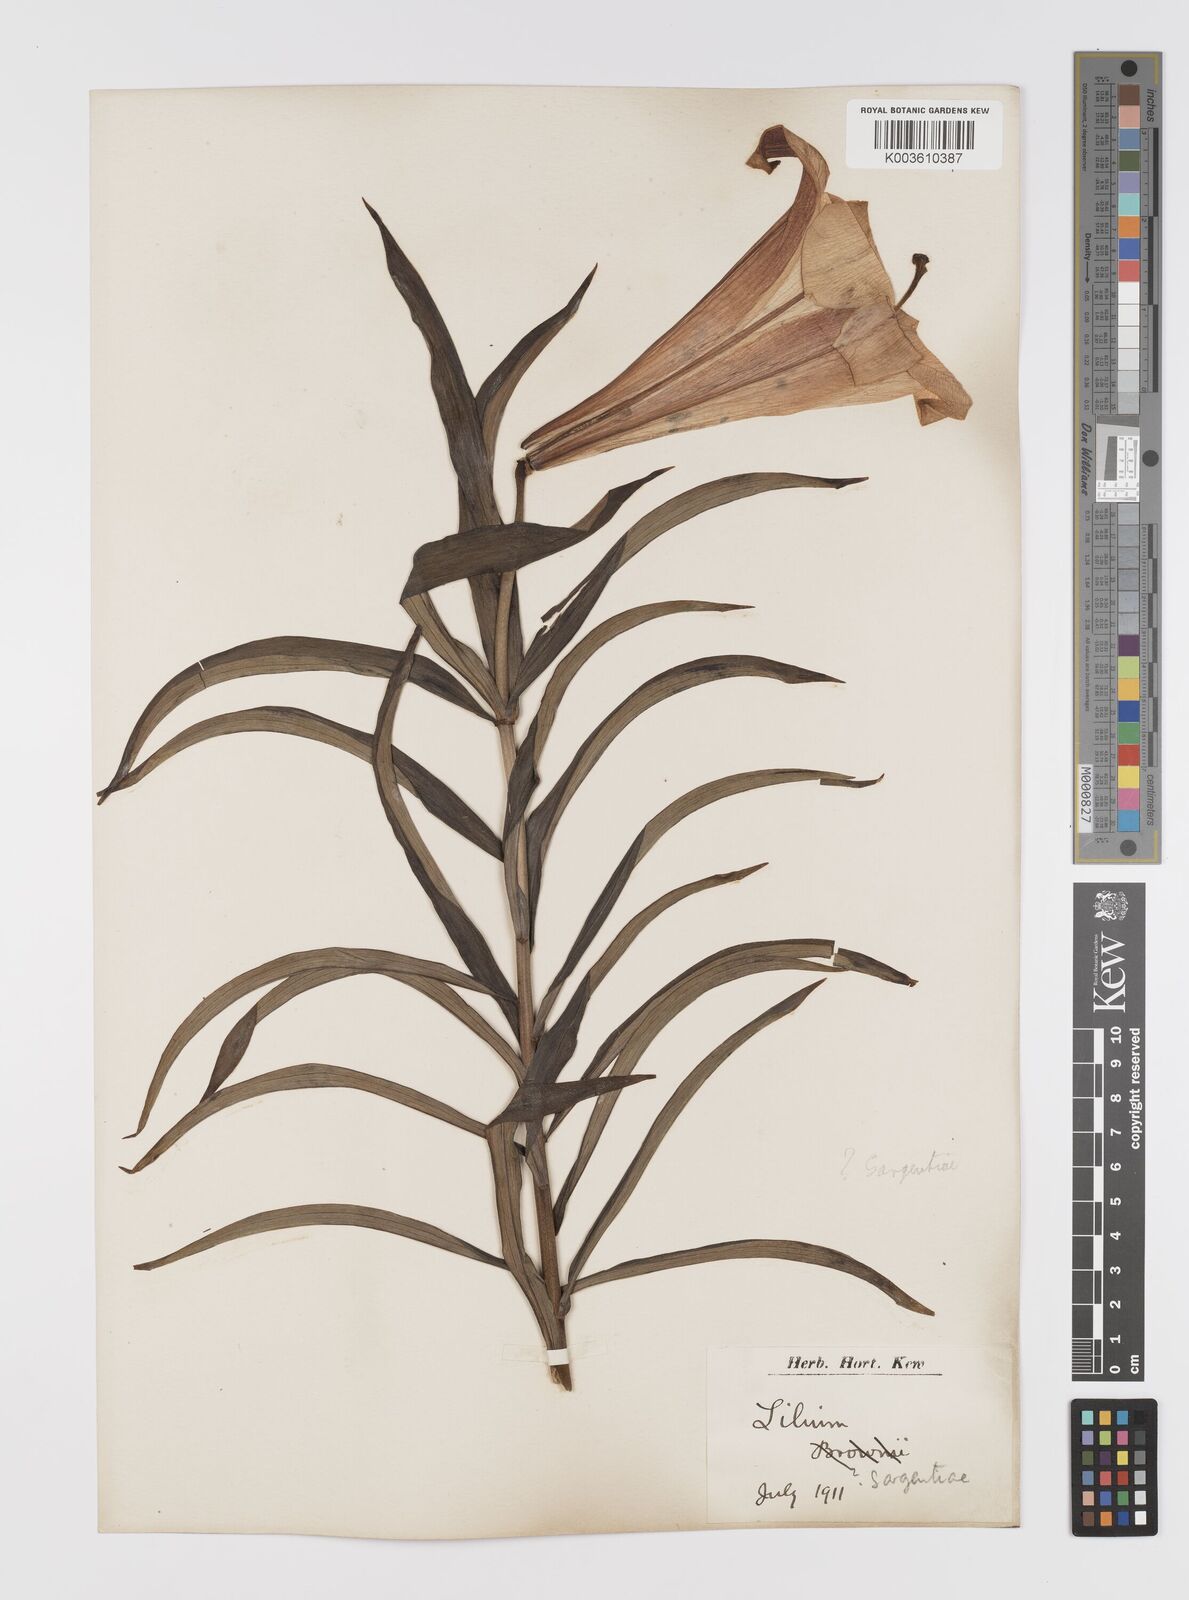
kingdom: Plantae
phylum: Tracheophyta
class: Liliopsida
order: Liliales
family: Liliaceae
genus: Lilium
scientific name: Lilium sargentiae
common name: Sargent lily
